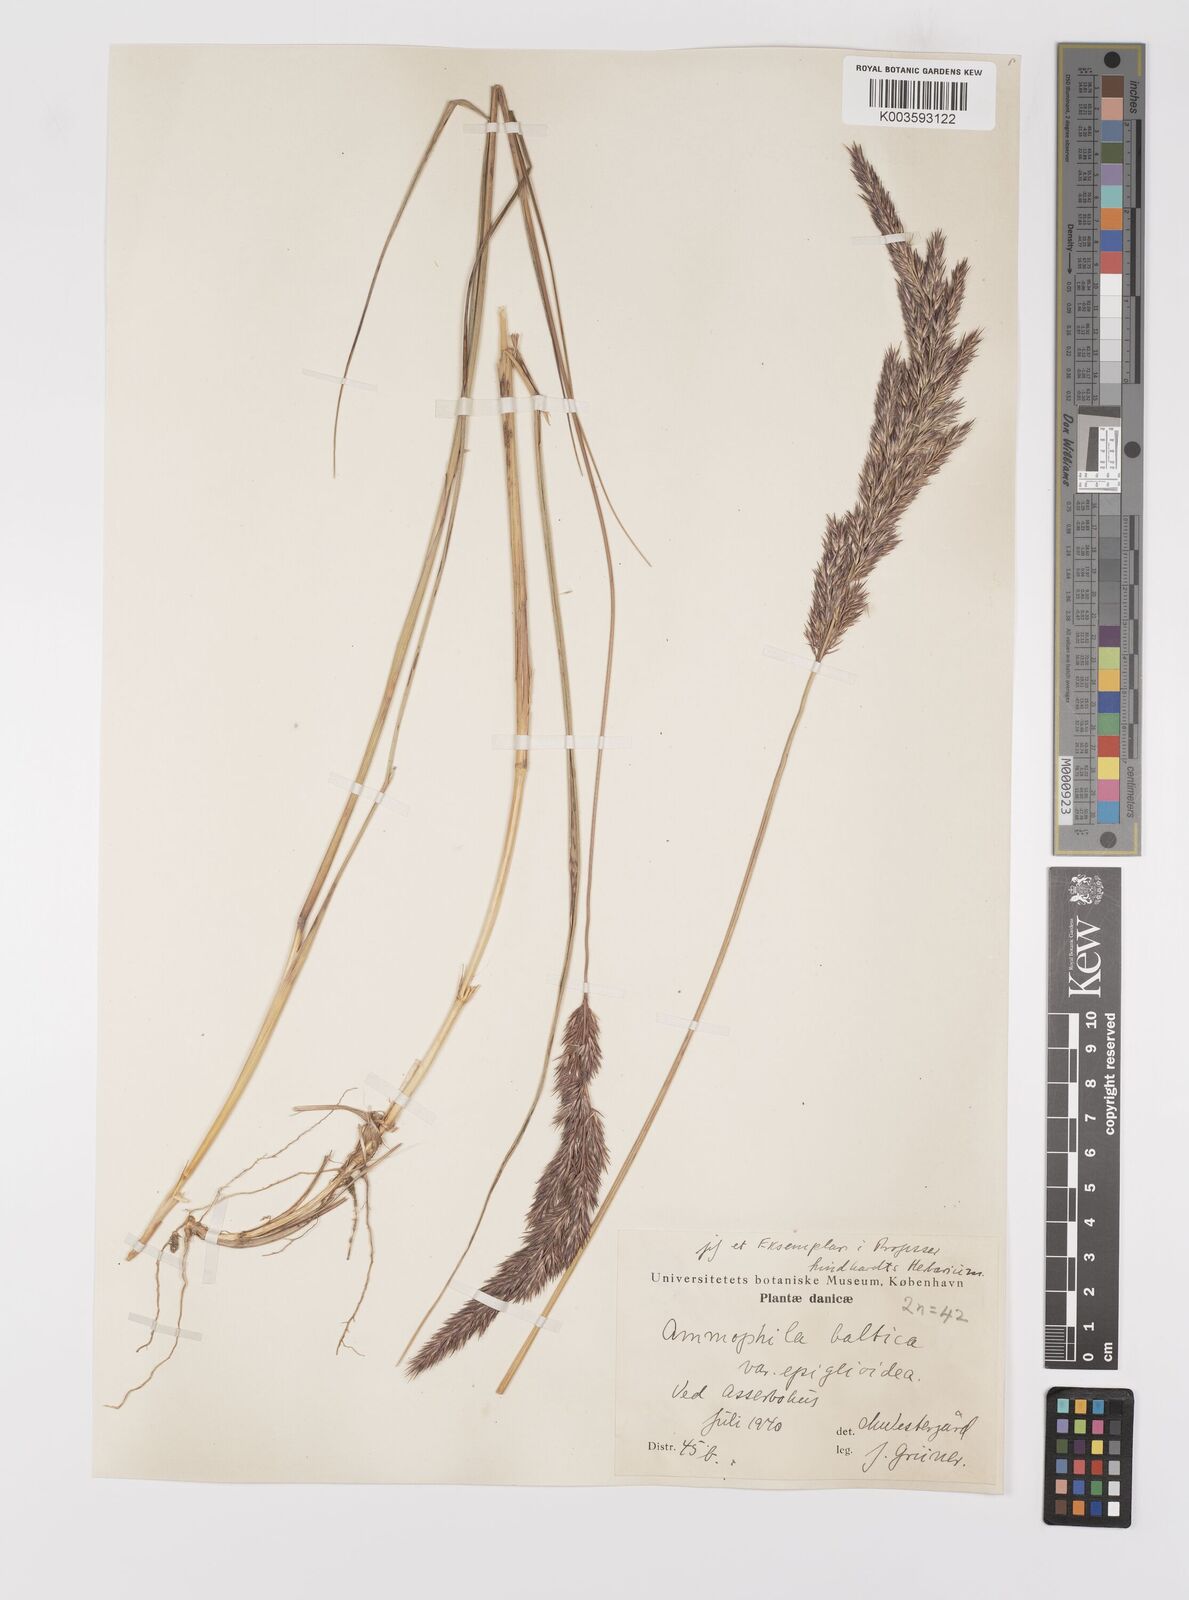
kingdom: Plantae
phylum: Tracheophyta
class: Liliopsida
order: Poales
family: Poaceae
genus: Calamagrostis
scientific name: Calamagrostis baltica
